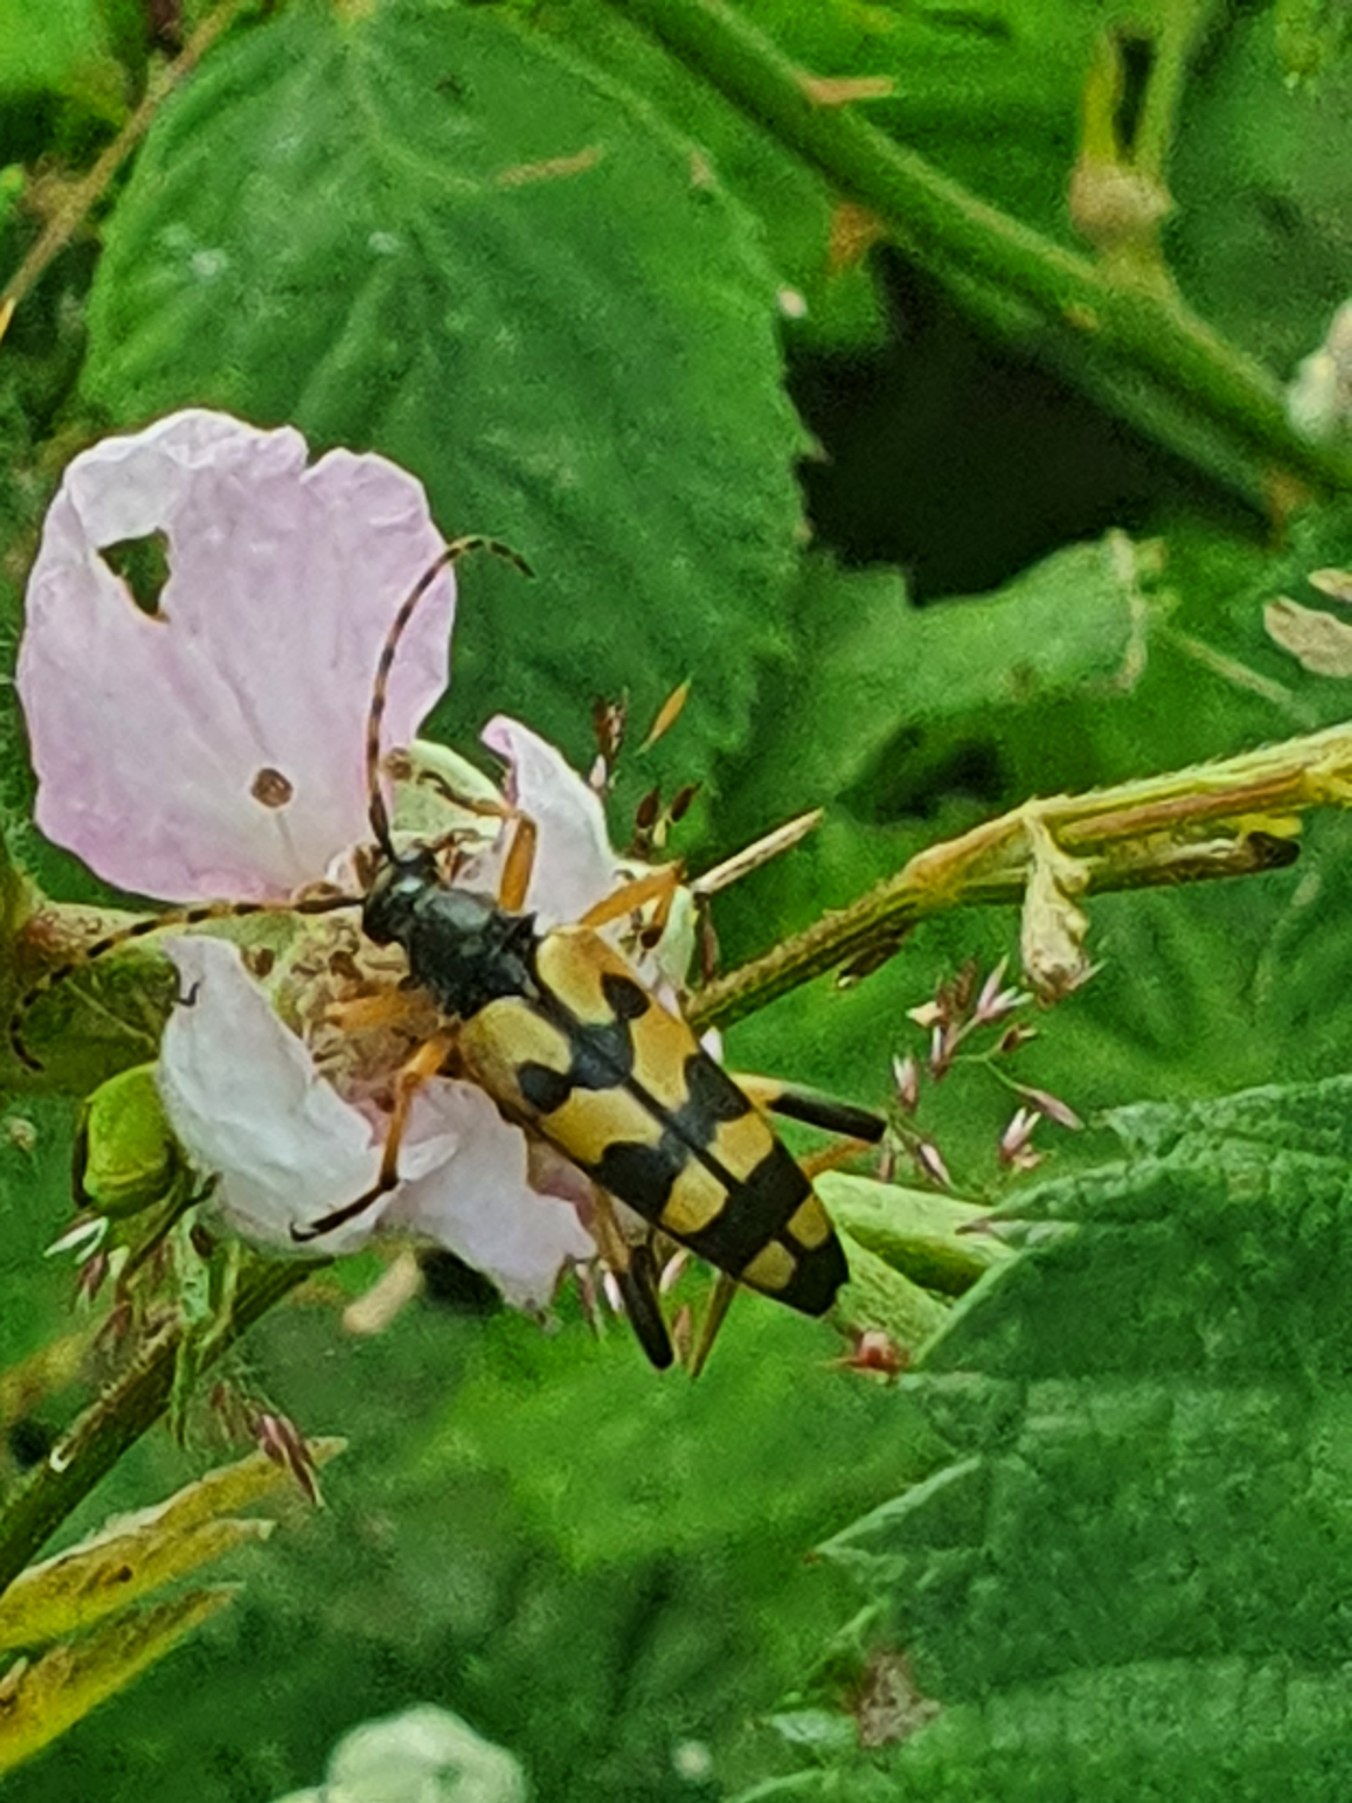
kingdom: Animalia
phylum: Arthropoda
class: Insecta
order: Coleoptera
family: Cerambycidae
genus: Rutpela
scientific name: Rutpela maculata
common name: Sydlig blomsterbuk
